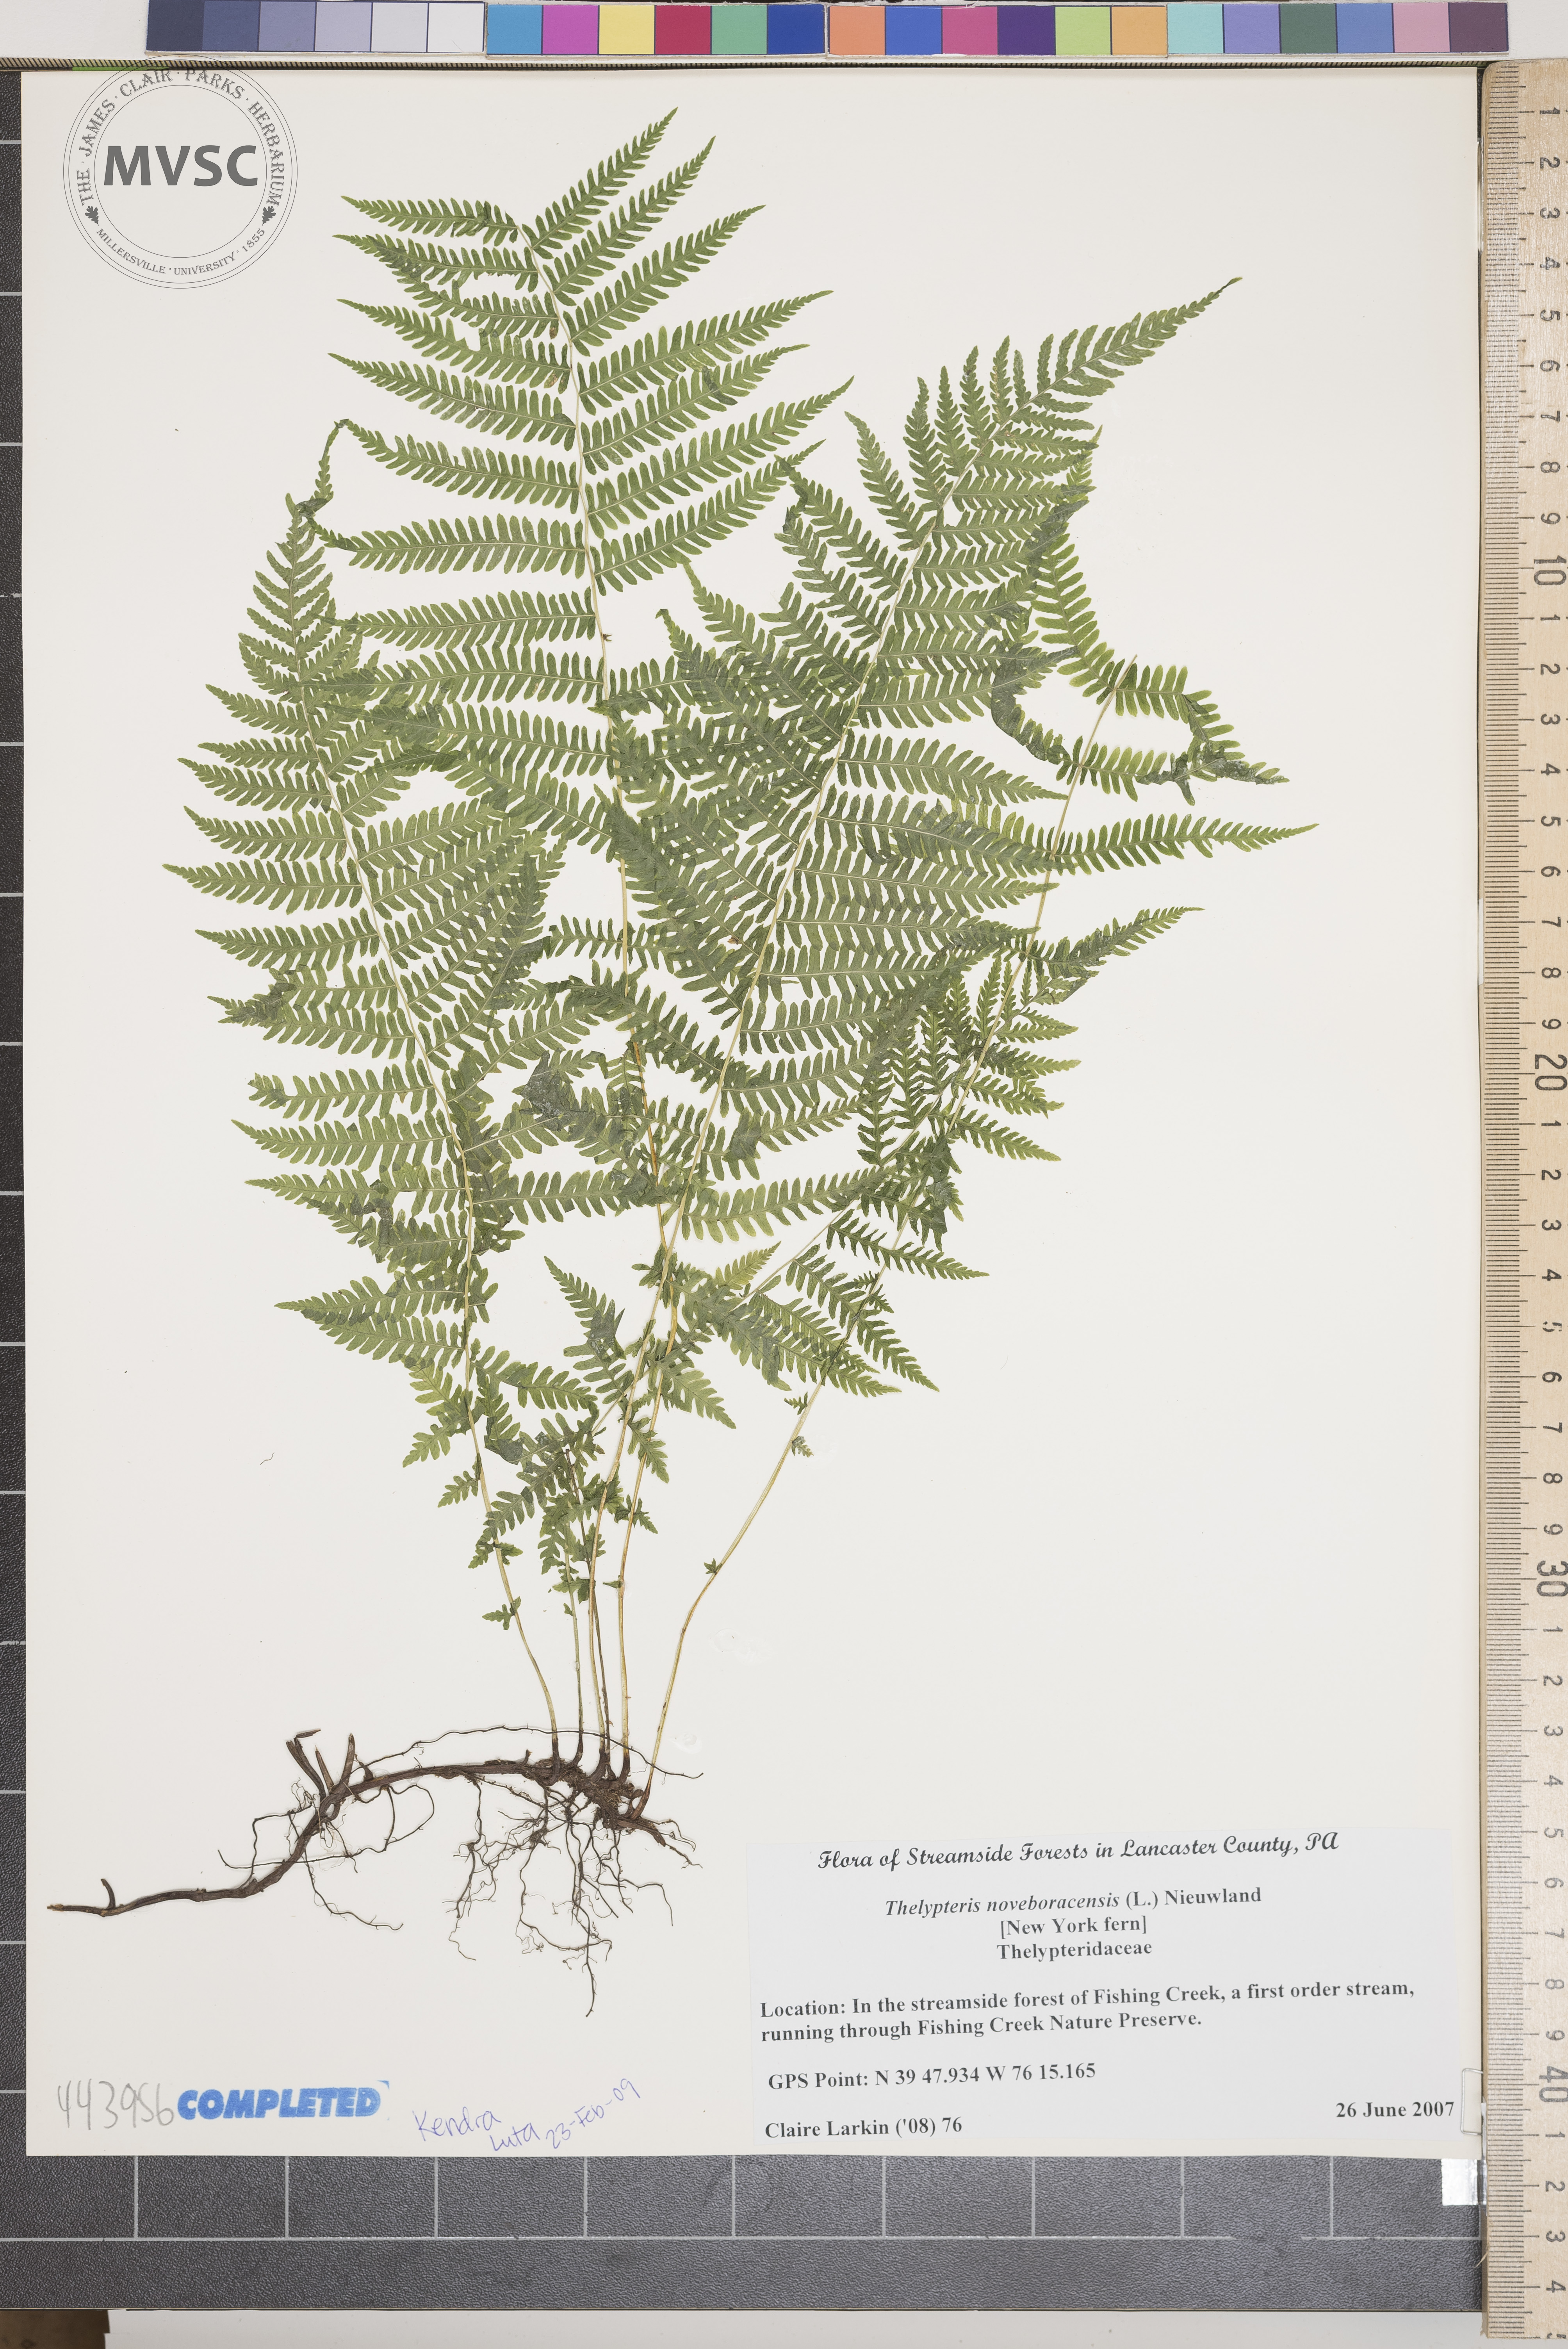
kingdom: Plantae
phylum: Tracheophyta
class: Polypodiopsida
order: Polypodiales
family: Thelypteridaceae
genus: Amauropelta
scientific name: Amauropelta noveboracensis
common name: New york fern
